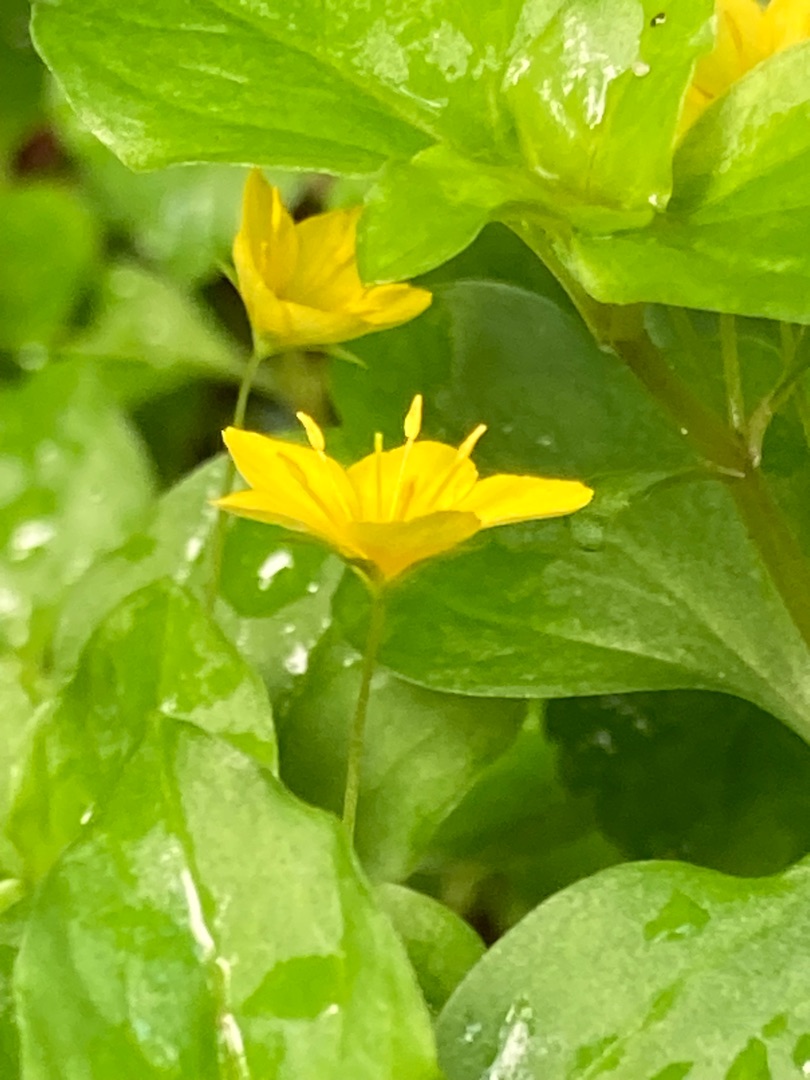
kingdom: Plantae
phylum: Tracheophyta
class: Magnoliopsida
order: Ericales
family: Primulaceae
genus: Lysimachia
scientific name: Lysimachia nemorum
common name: Lund-fredløs
